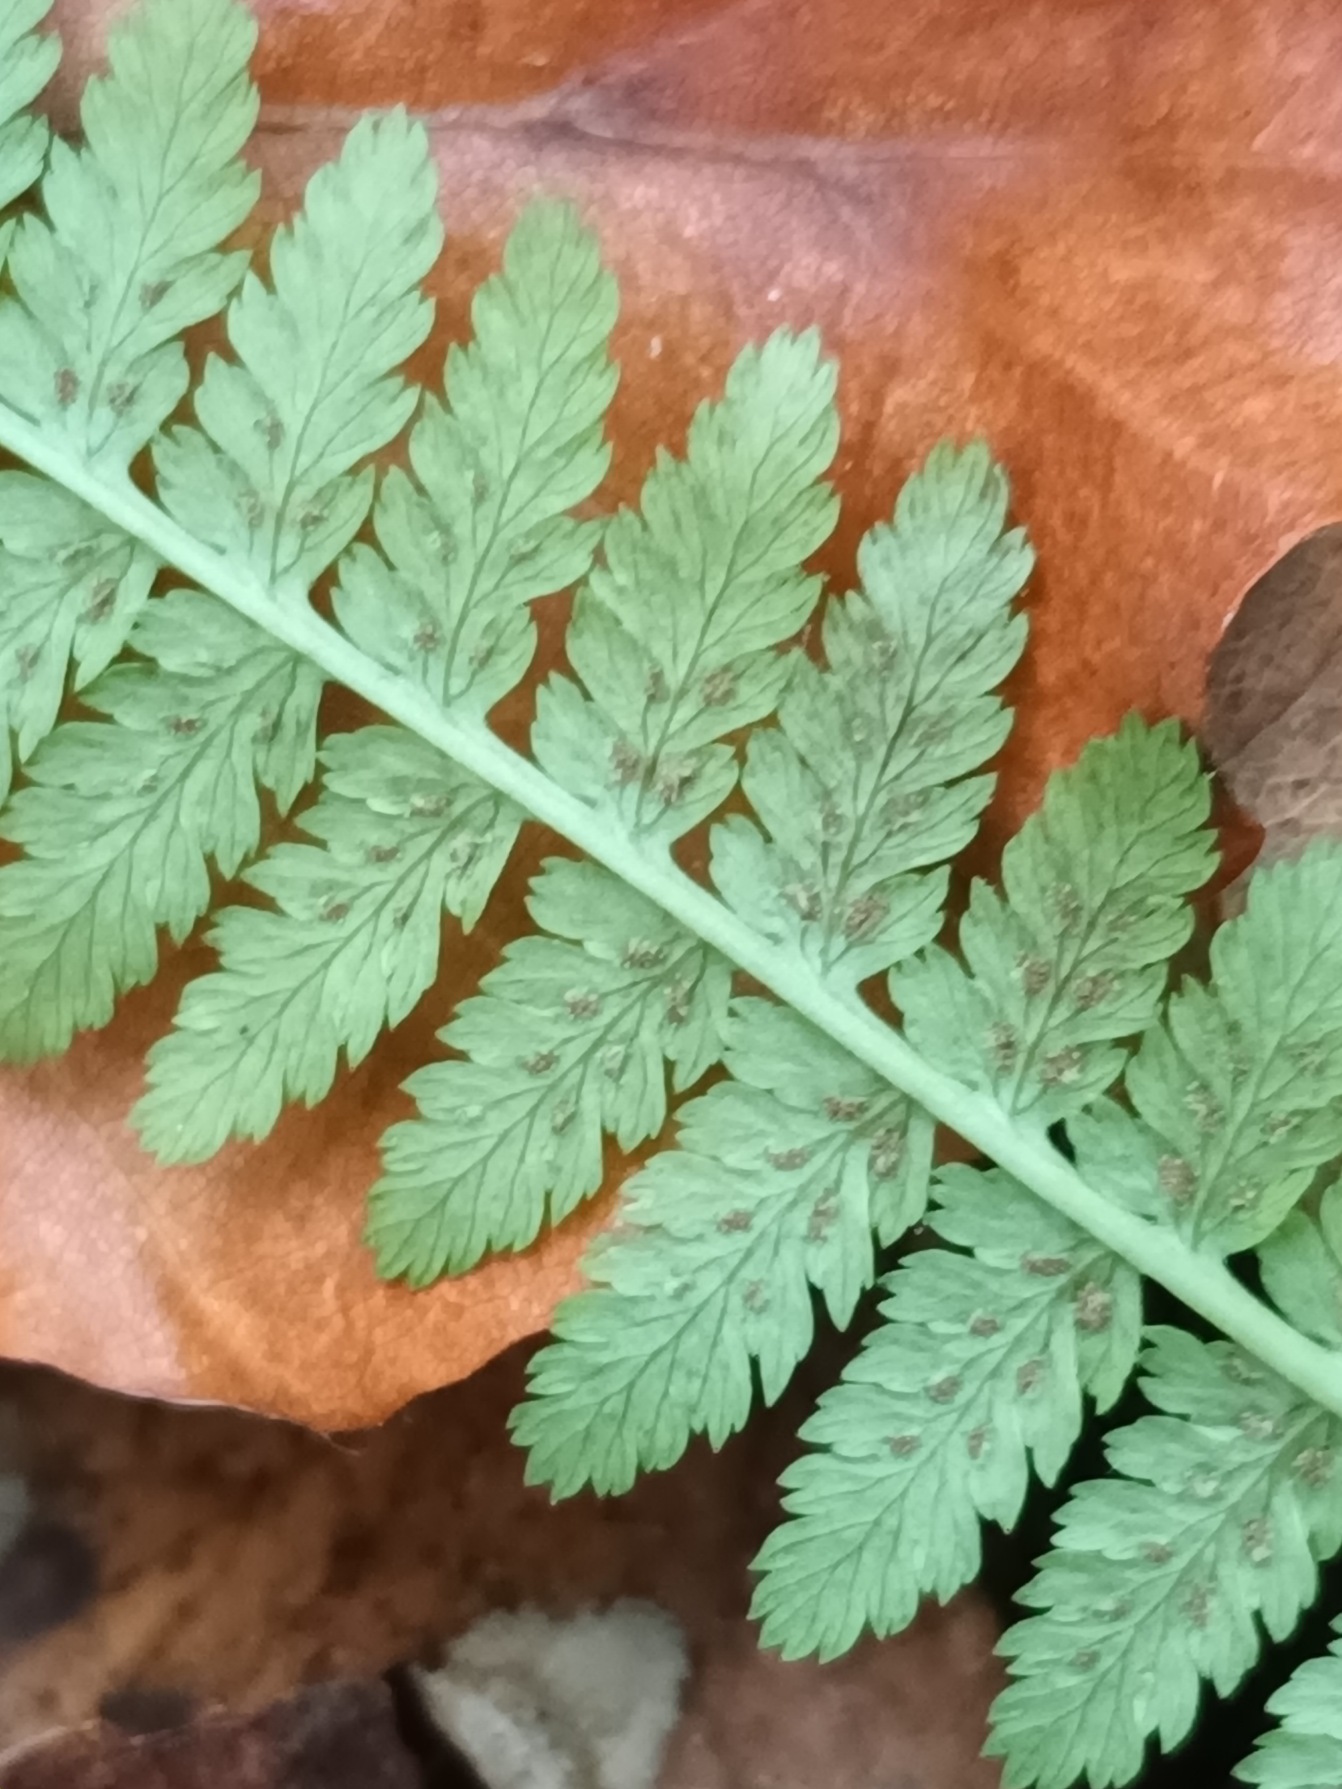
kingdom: Plantae
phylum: Tracheophyta
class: Polypodiopsida
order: Polypodiales
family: Athyriaceae
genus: Athyrium
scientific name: Athyrium filix-femina
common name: Fjerbregne
